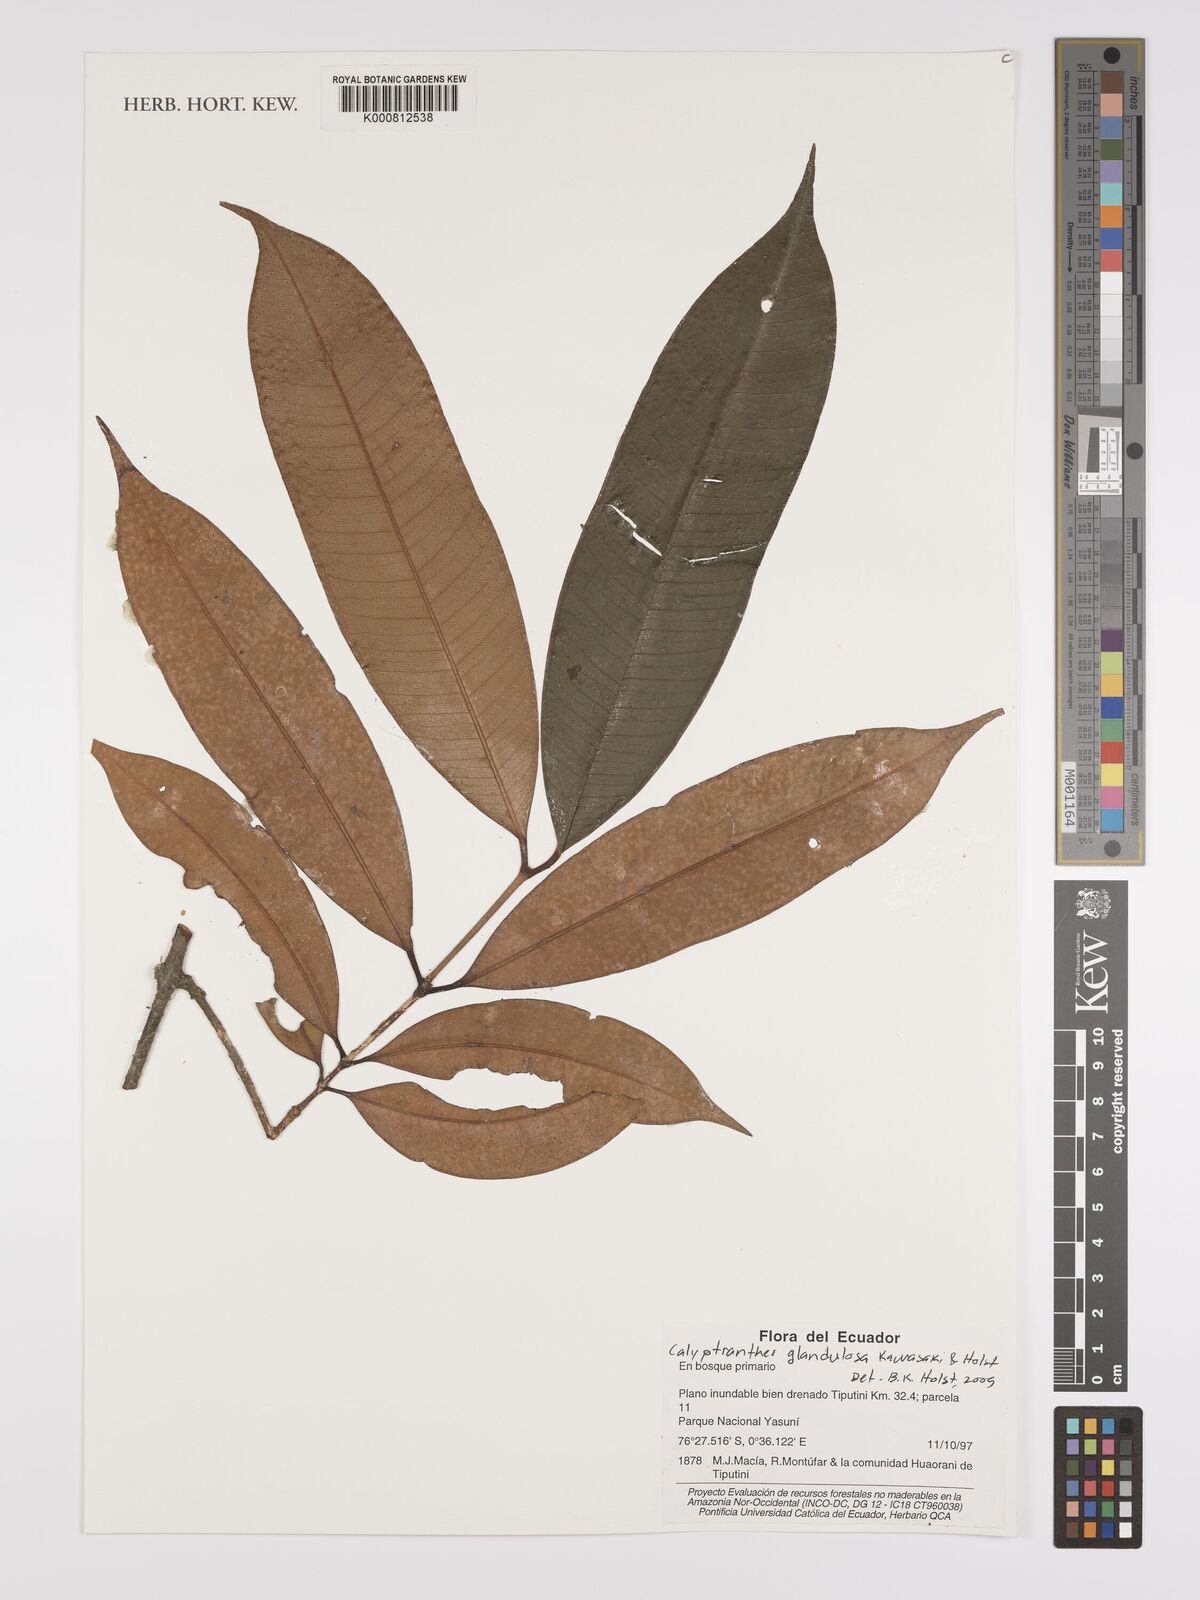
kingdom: Plantae
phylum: Tracheophyta
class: Magnoliopsida
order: Myrtales
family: Myrtaceae
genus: Myrcia
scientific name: Myrcia adenophylla
